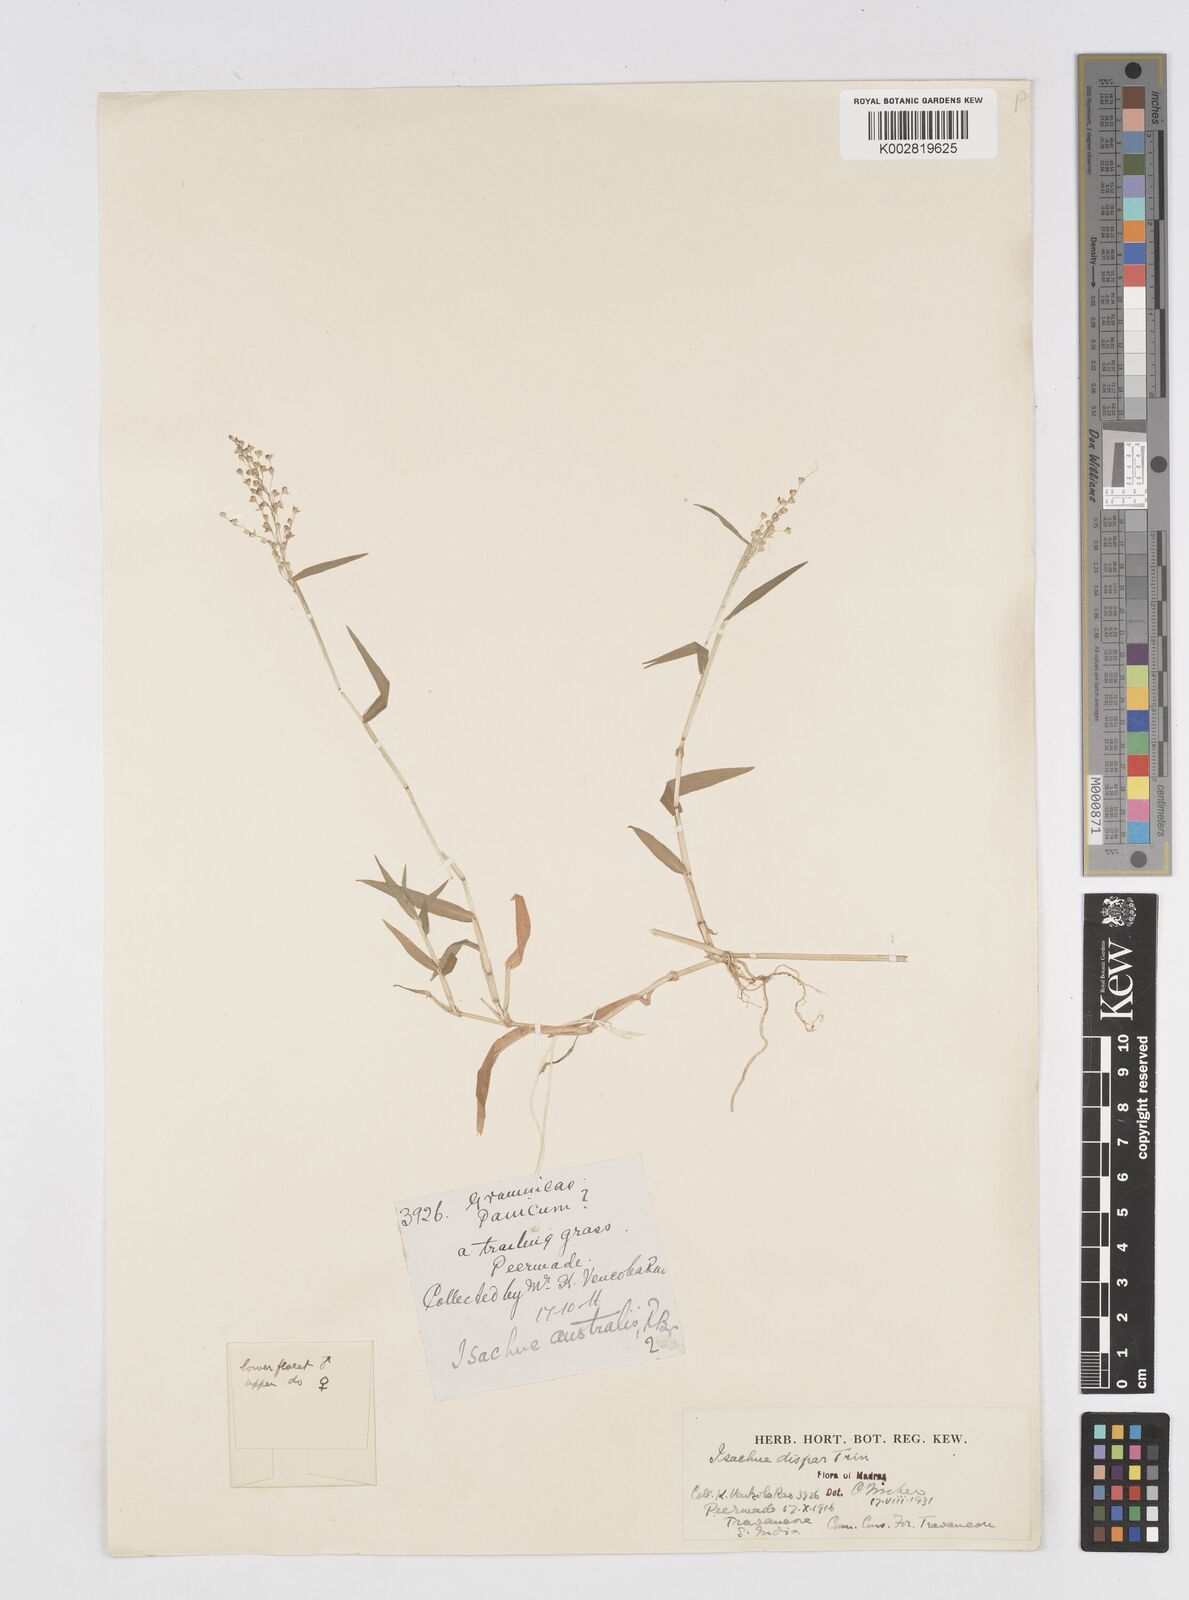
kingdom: Plantae
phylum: Tracheophyta
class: Liliopsida
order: Poales
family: Poaceae
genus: Isachne
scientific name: Isachne globosa
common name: Swamp millet
